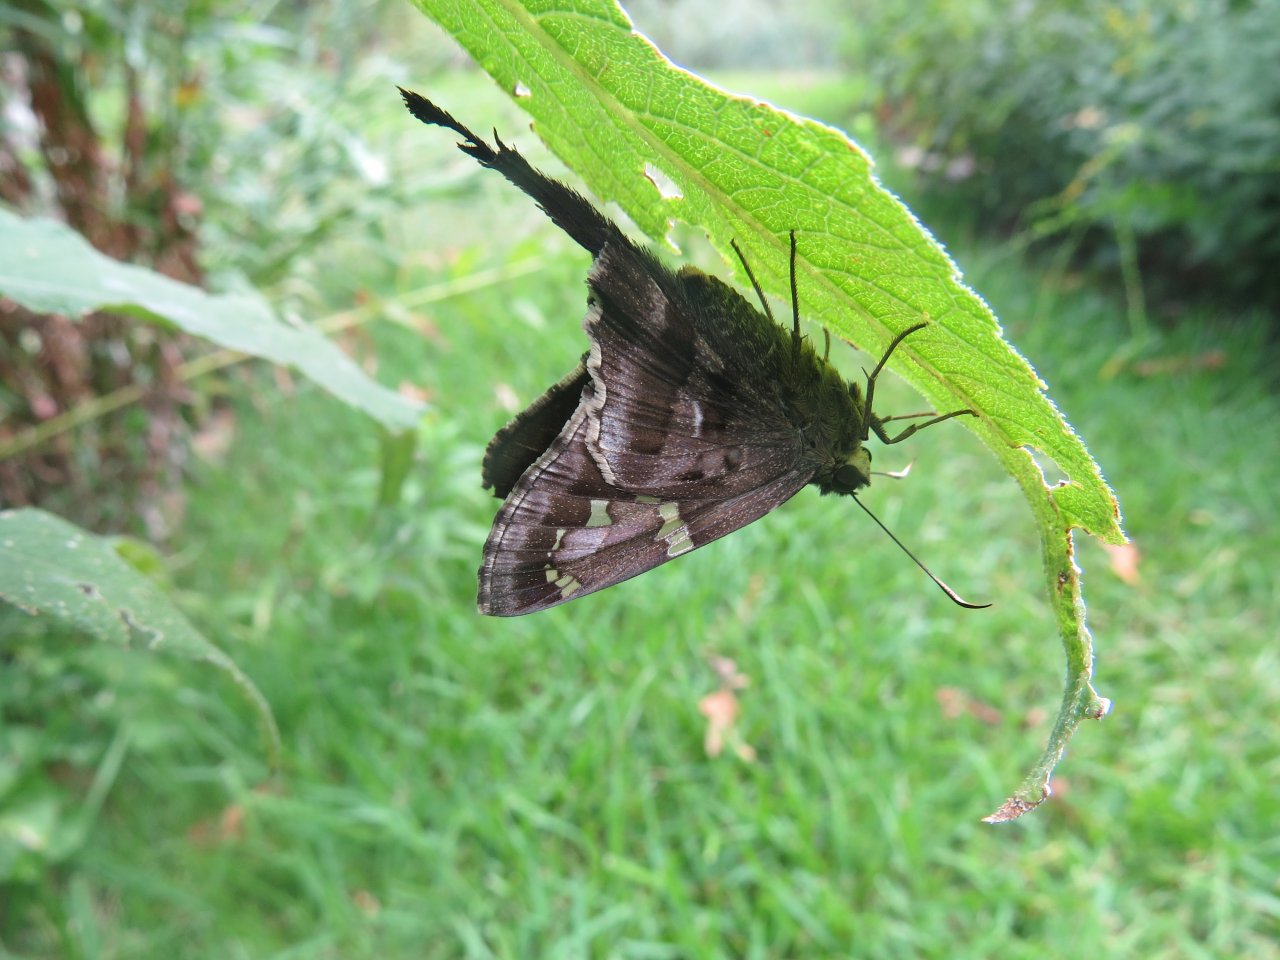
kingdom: Animalia
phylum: Arthropoda
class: Insecta
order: Lepidoptera
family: Hesperiidae
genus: Urbanus
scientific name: Urbanus proteus
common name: Long-tailed Skipper
